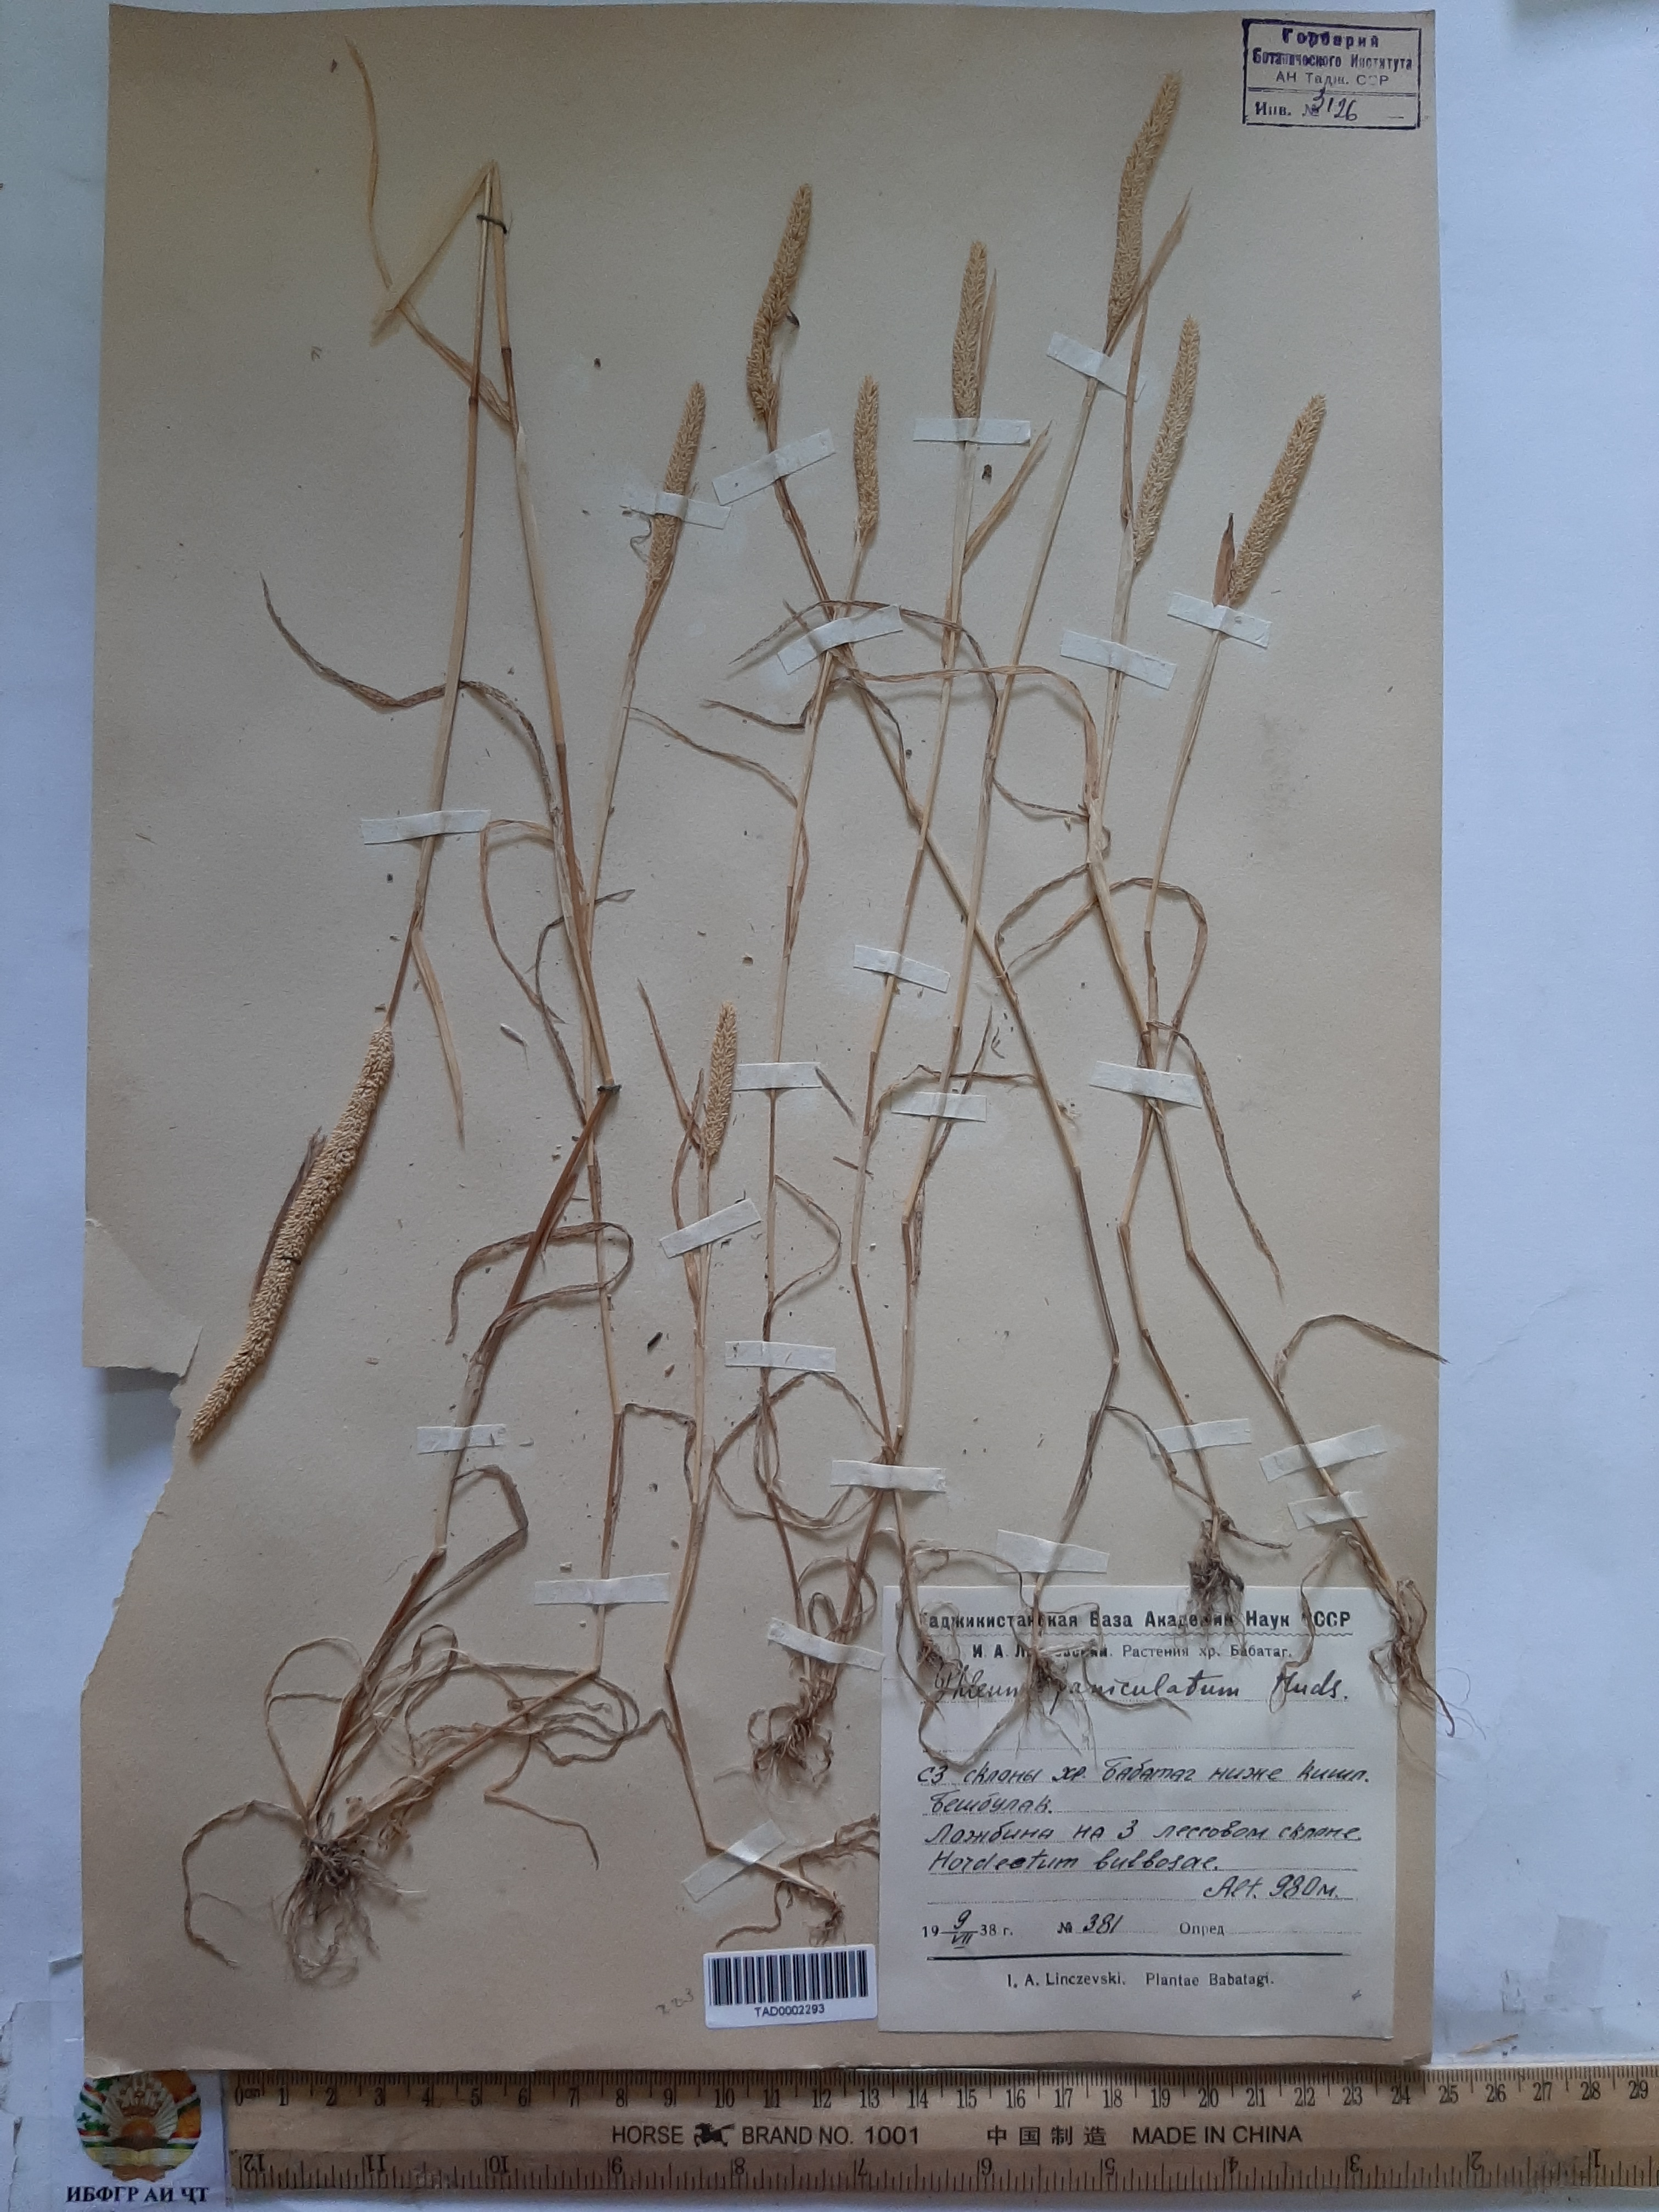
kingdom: Plantae
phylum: Tracheophyta
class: Liliopsida
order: Poales
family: Poaceae
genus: Phleum
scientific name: Phleum paniculatum
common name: British timothy
